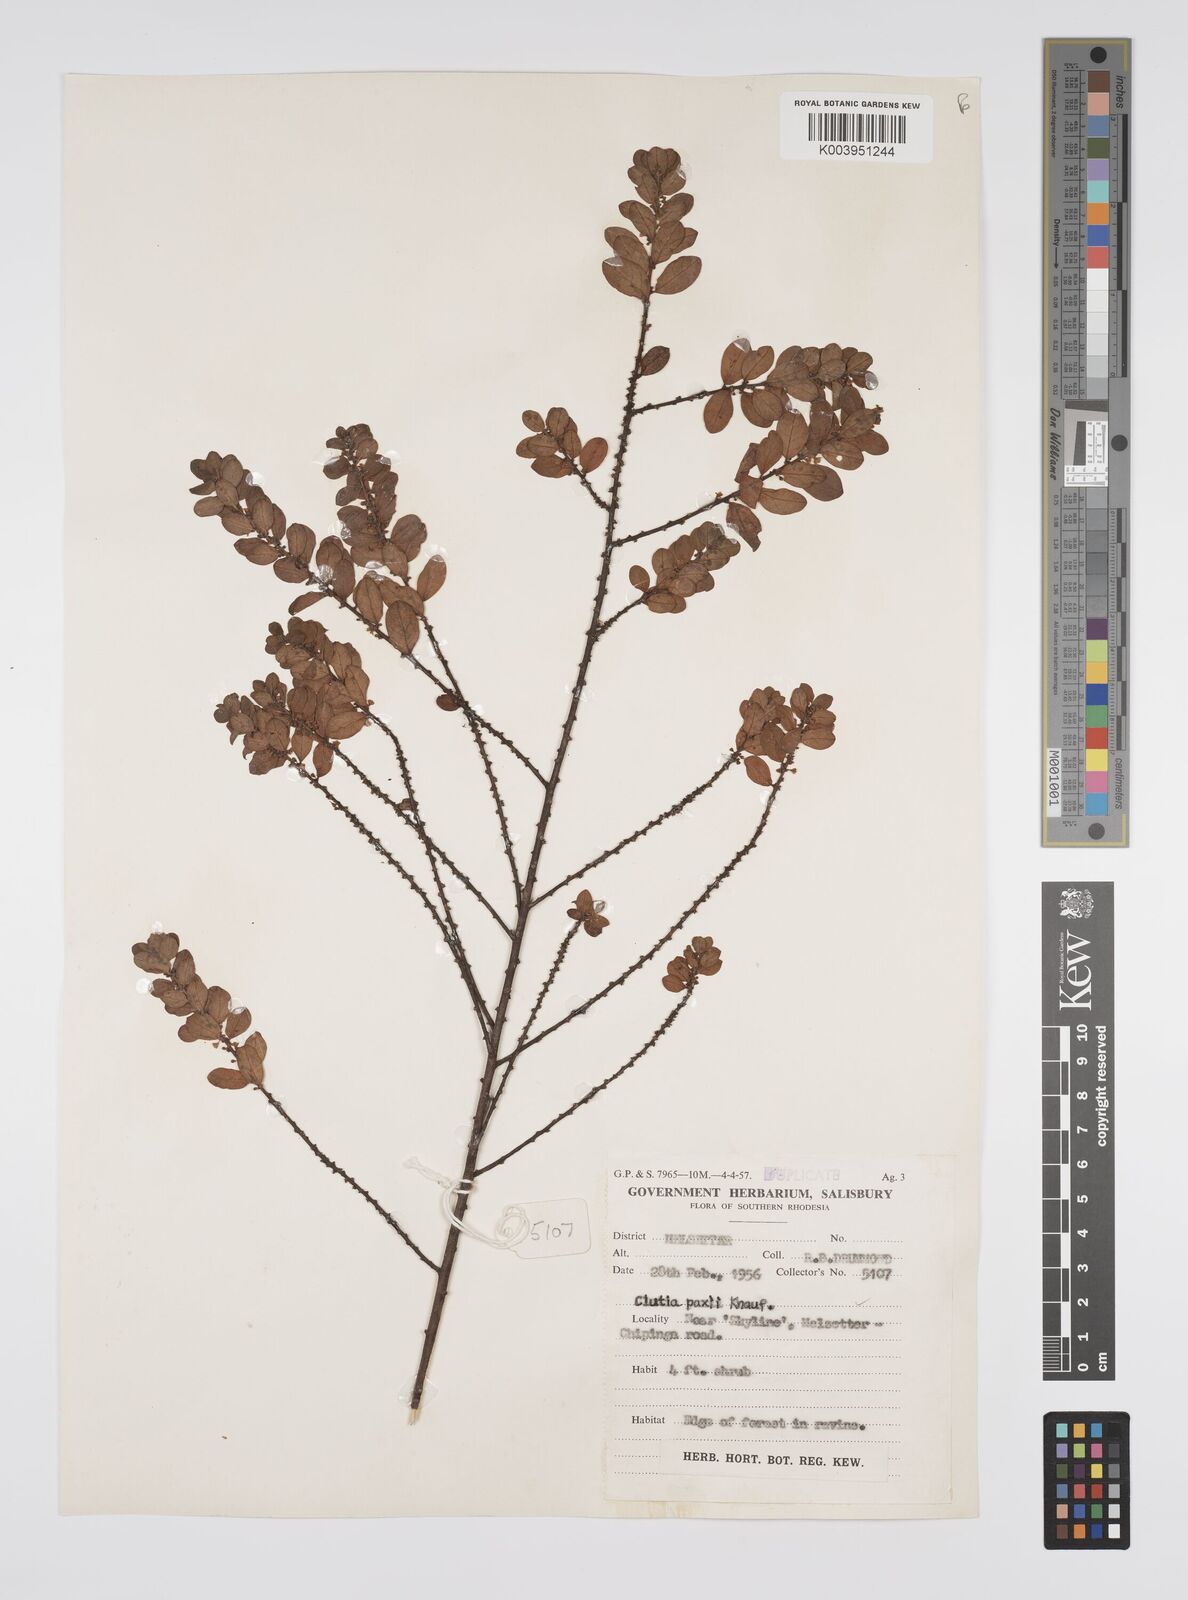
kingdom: Plantae
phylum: Tracheophyta
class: Magnoliopsida
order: Malpighiales
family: Peraceae
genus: Clutia
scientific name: Clutia paxii
